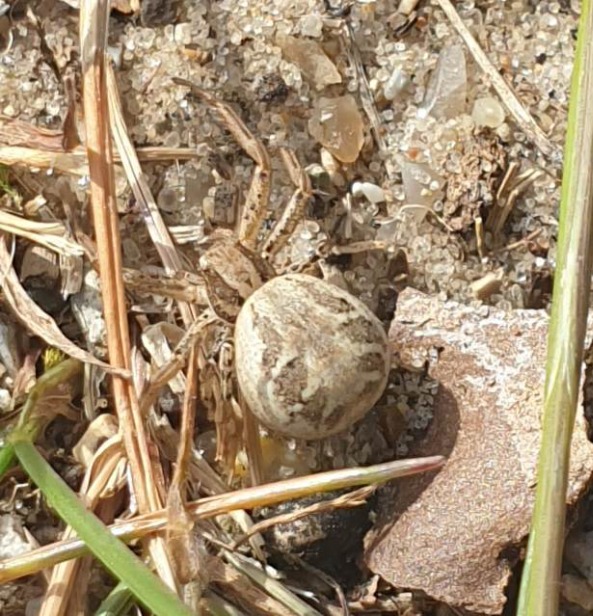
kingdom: Animalia
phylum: Arthropoda
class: Arachnida
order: Araneae
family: Thomisidae
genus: Xysticus
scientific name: Xysticus
